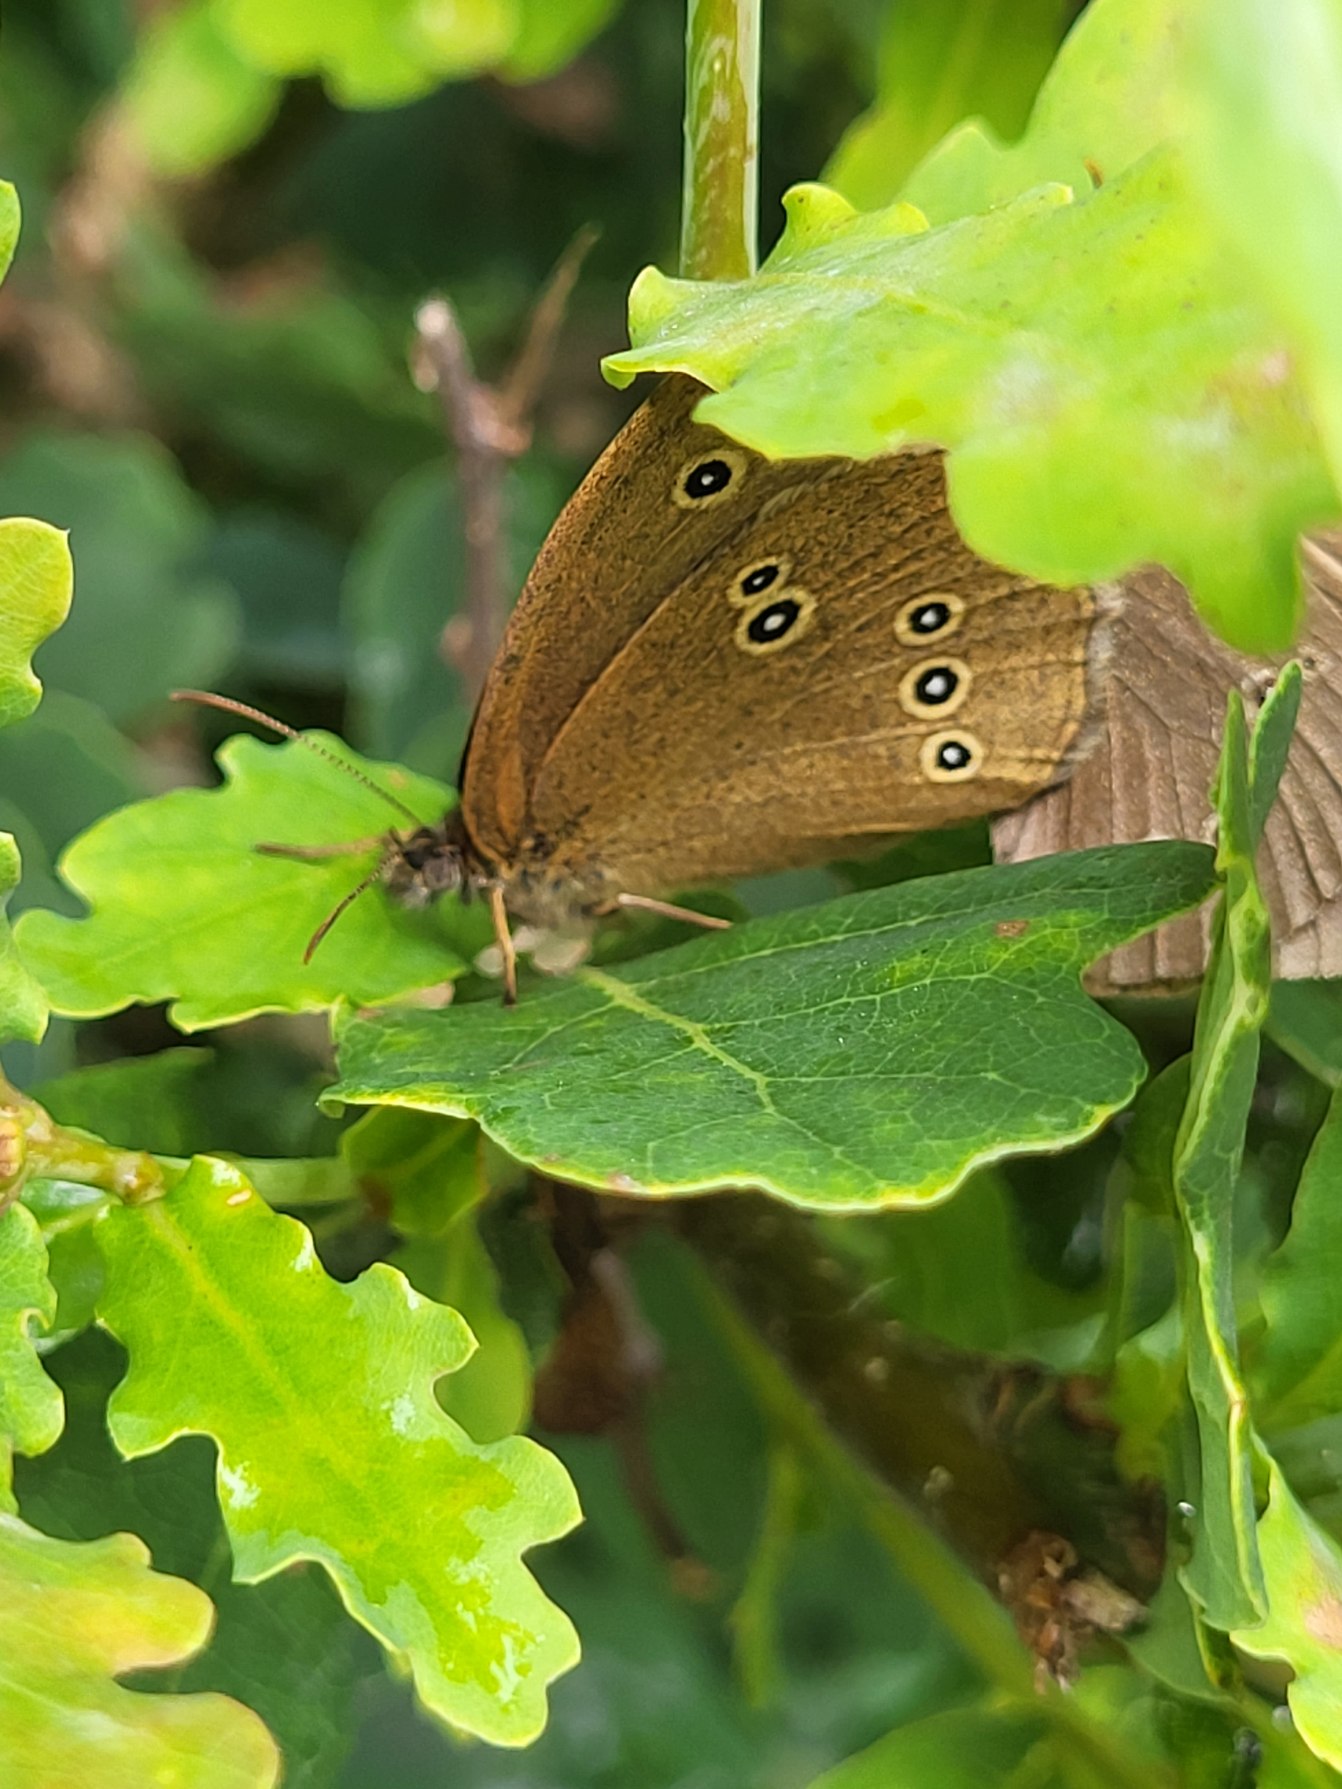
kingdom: Animalia
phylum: Arthropoda
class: Insecta
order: Lepidoptera
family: Nymphalidae
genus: Aphantopus
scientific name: Aphantopus hyperantus
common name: Engrandøje
